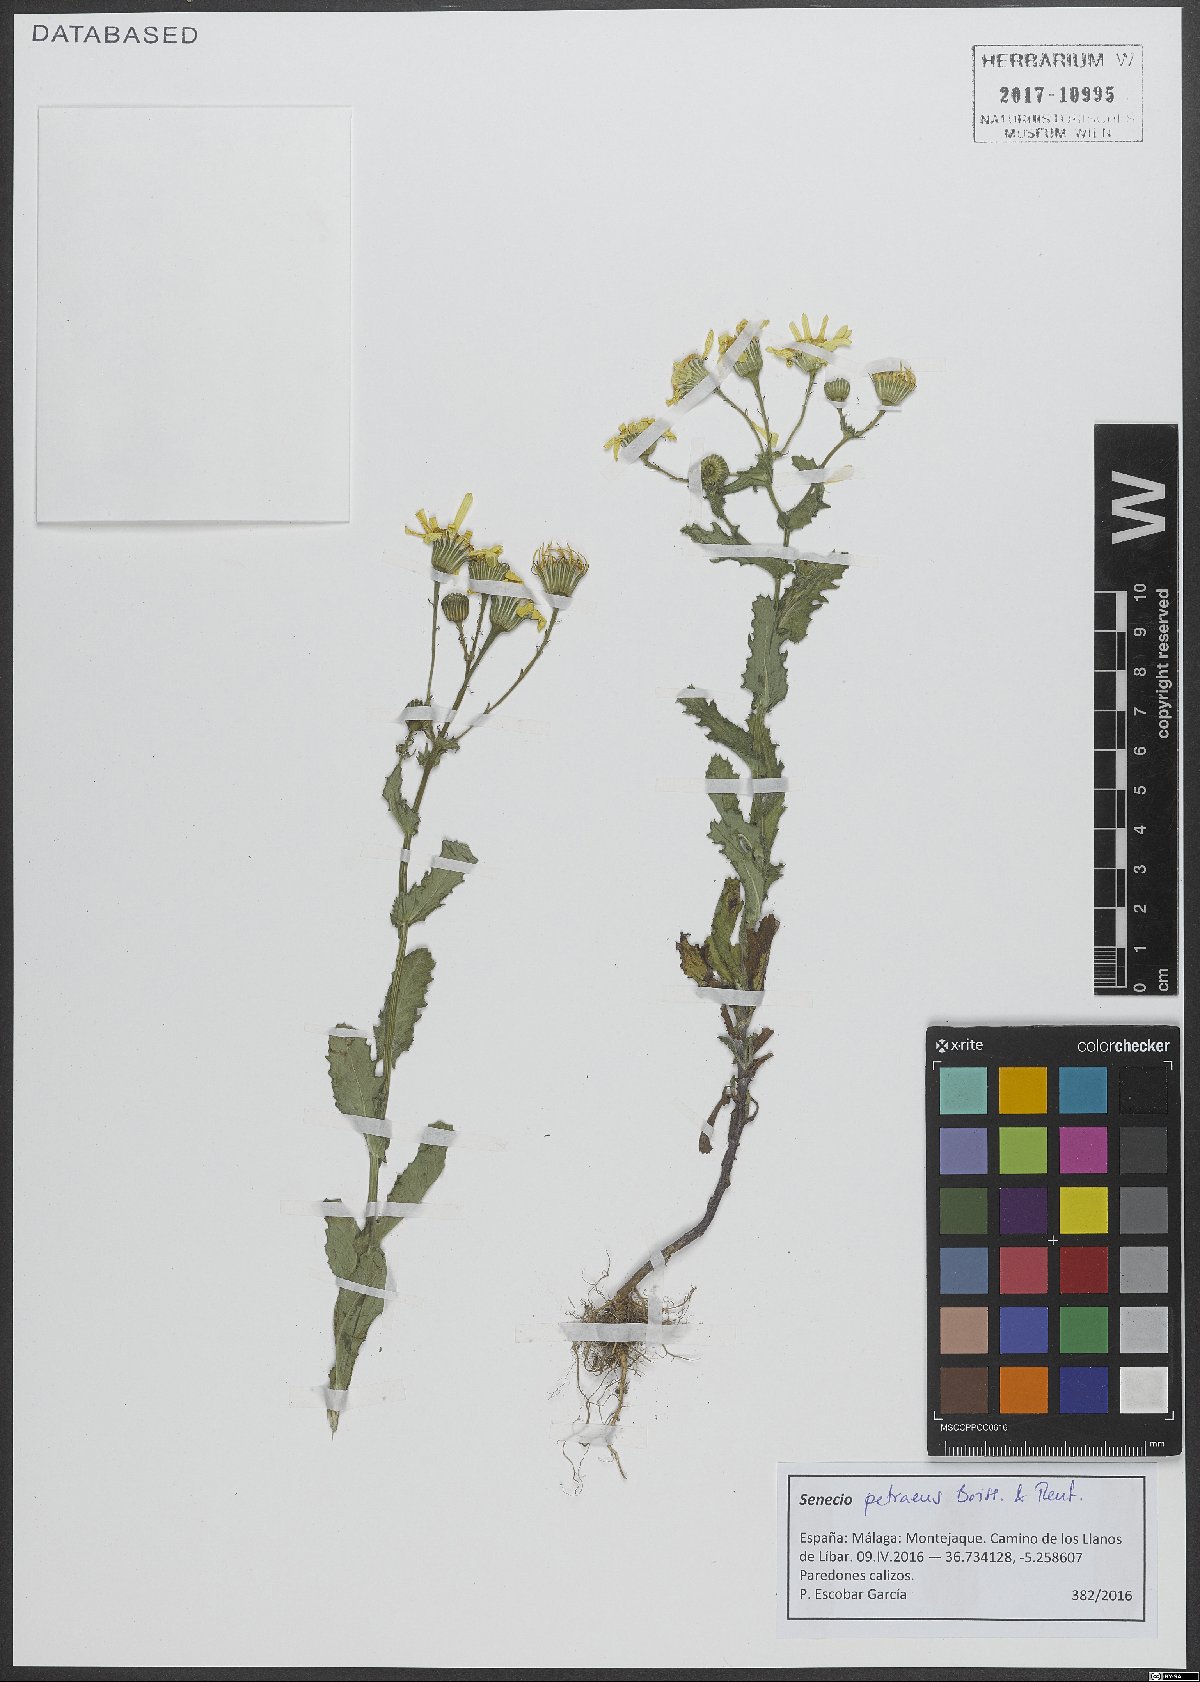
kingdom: Plantae
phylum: Tracheophyta
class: Magnoliopsida
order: Asterales
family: Asteraceae
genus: Senecio
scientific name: Senecio petraeus
